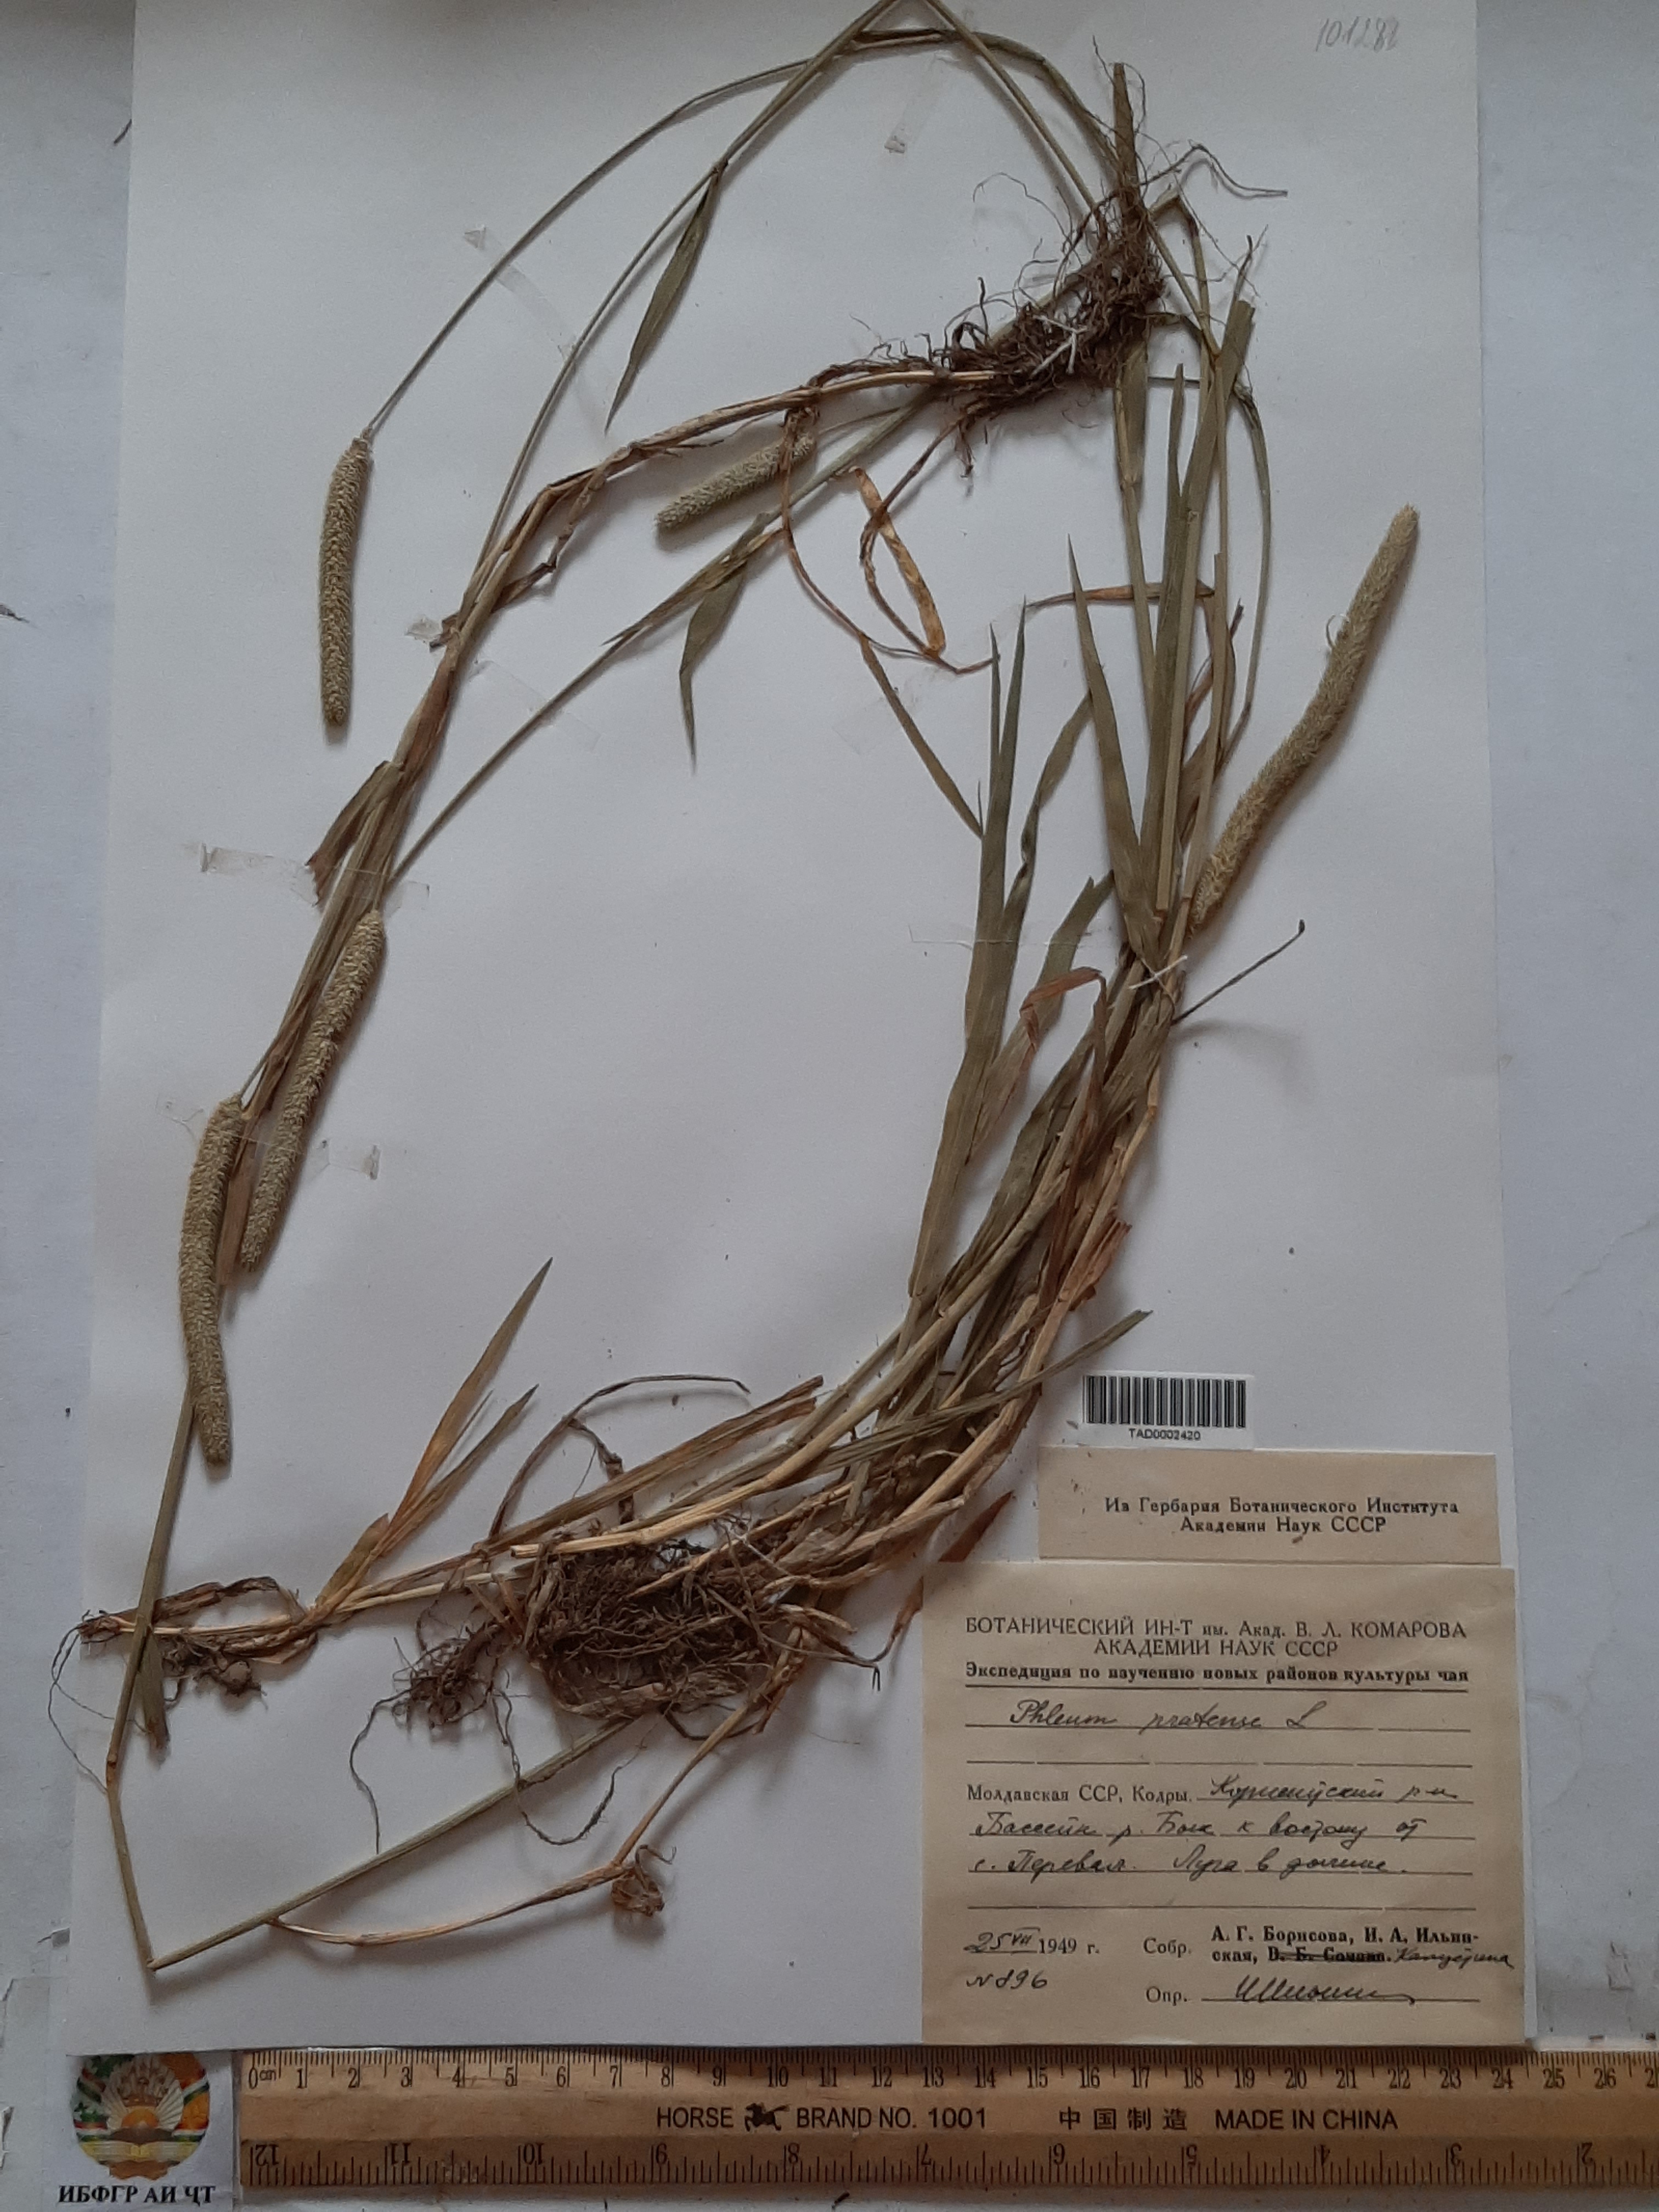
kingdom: Plantae
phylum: Tracheophyta
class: Liliopsida
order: Poales
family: Poaceae
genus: Phleum
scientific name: Phleum pratense
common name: Timothy grass
